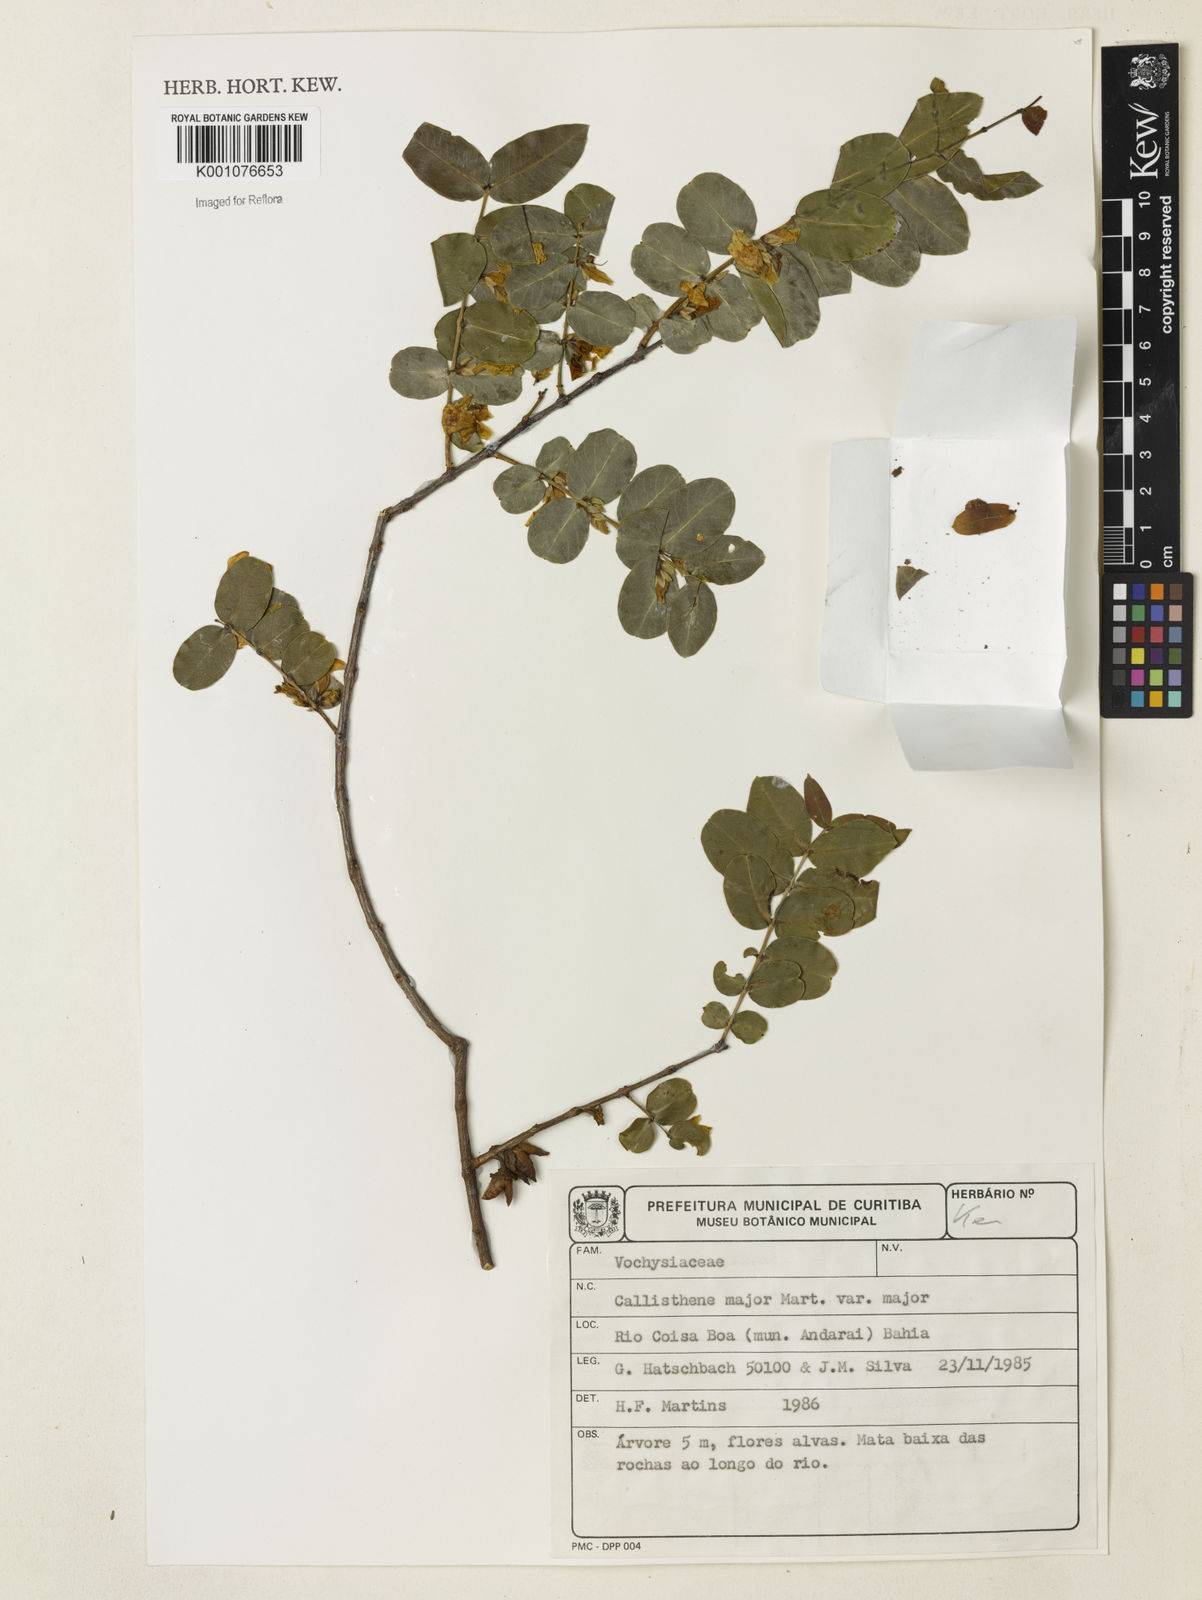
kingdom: Plantae
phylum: Tracheophyta
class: Magnoliopsida
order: Myrtales
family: Vochysiaceae
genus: Callisthene
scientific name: Callisthene major
